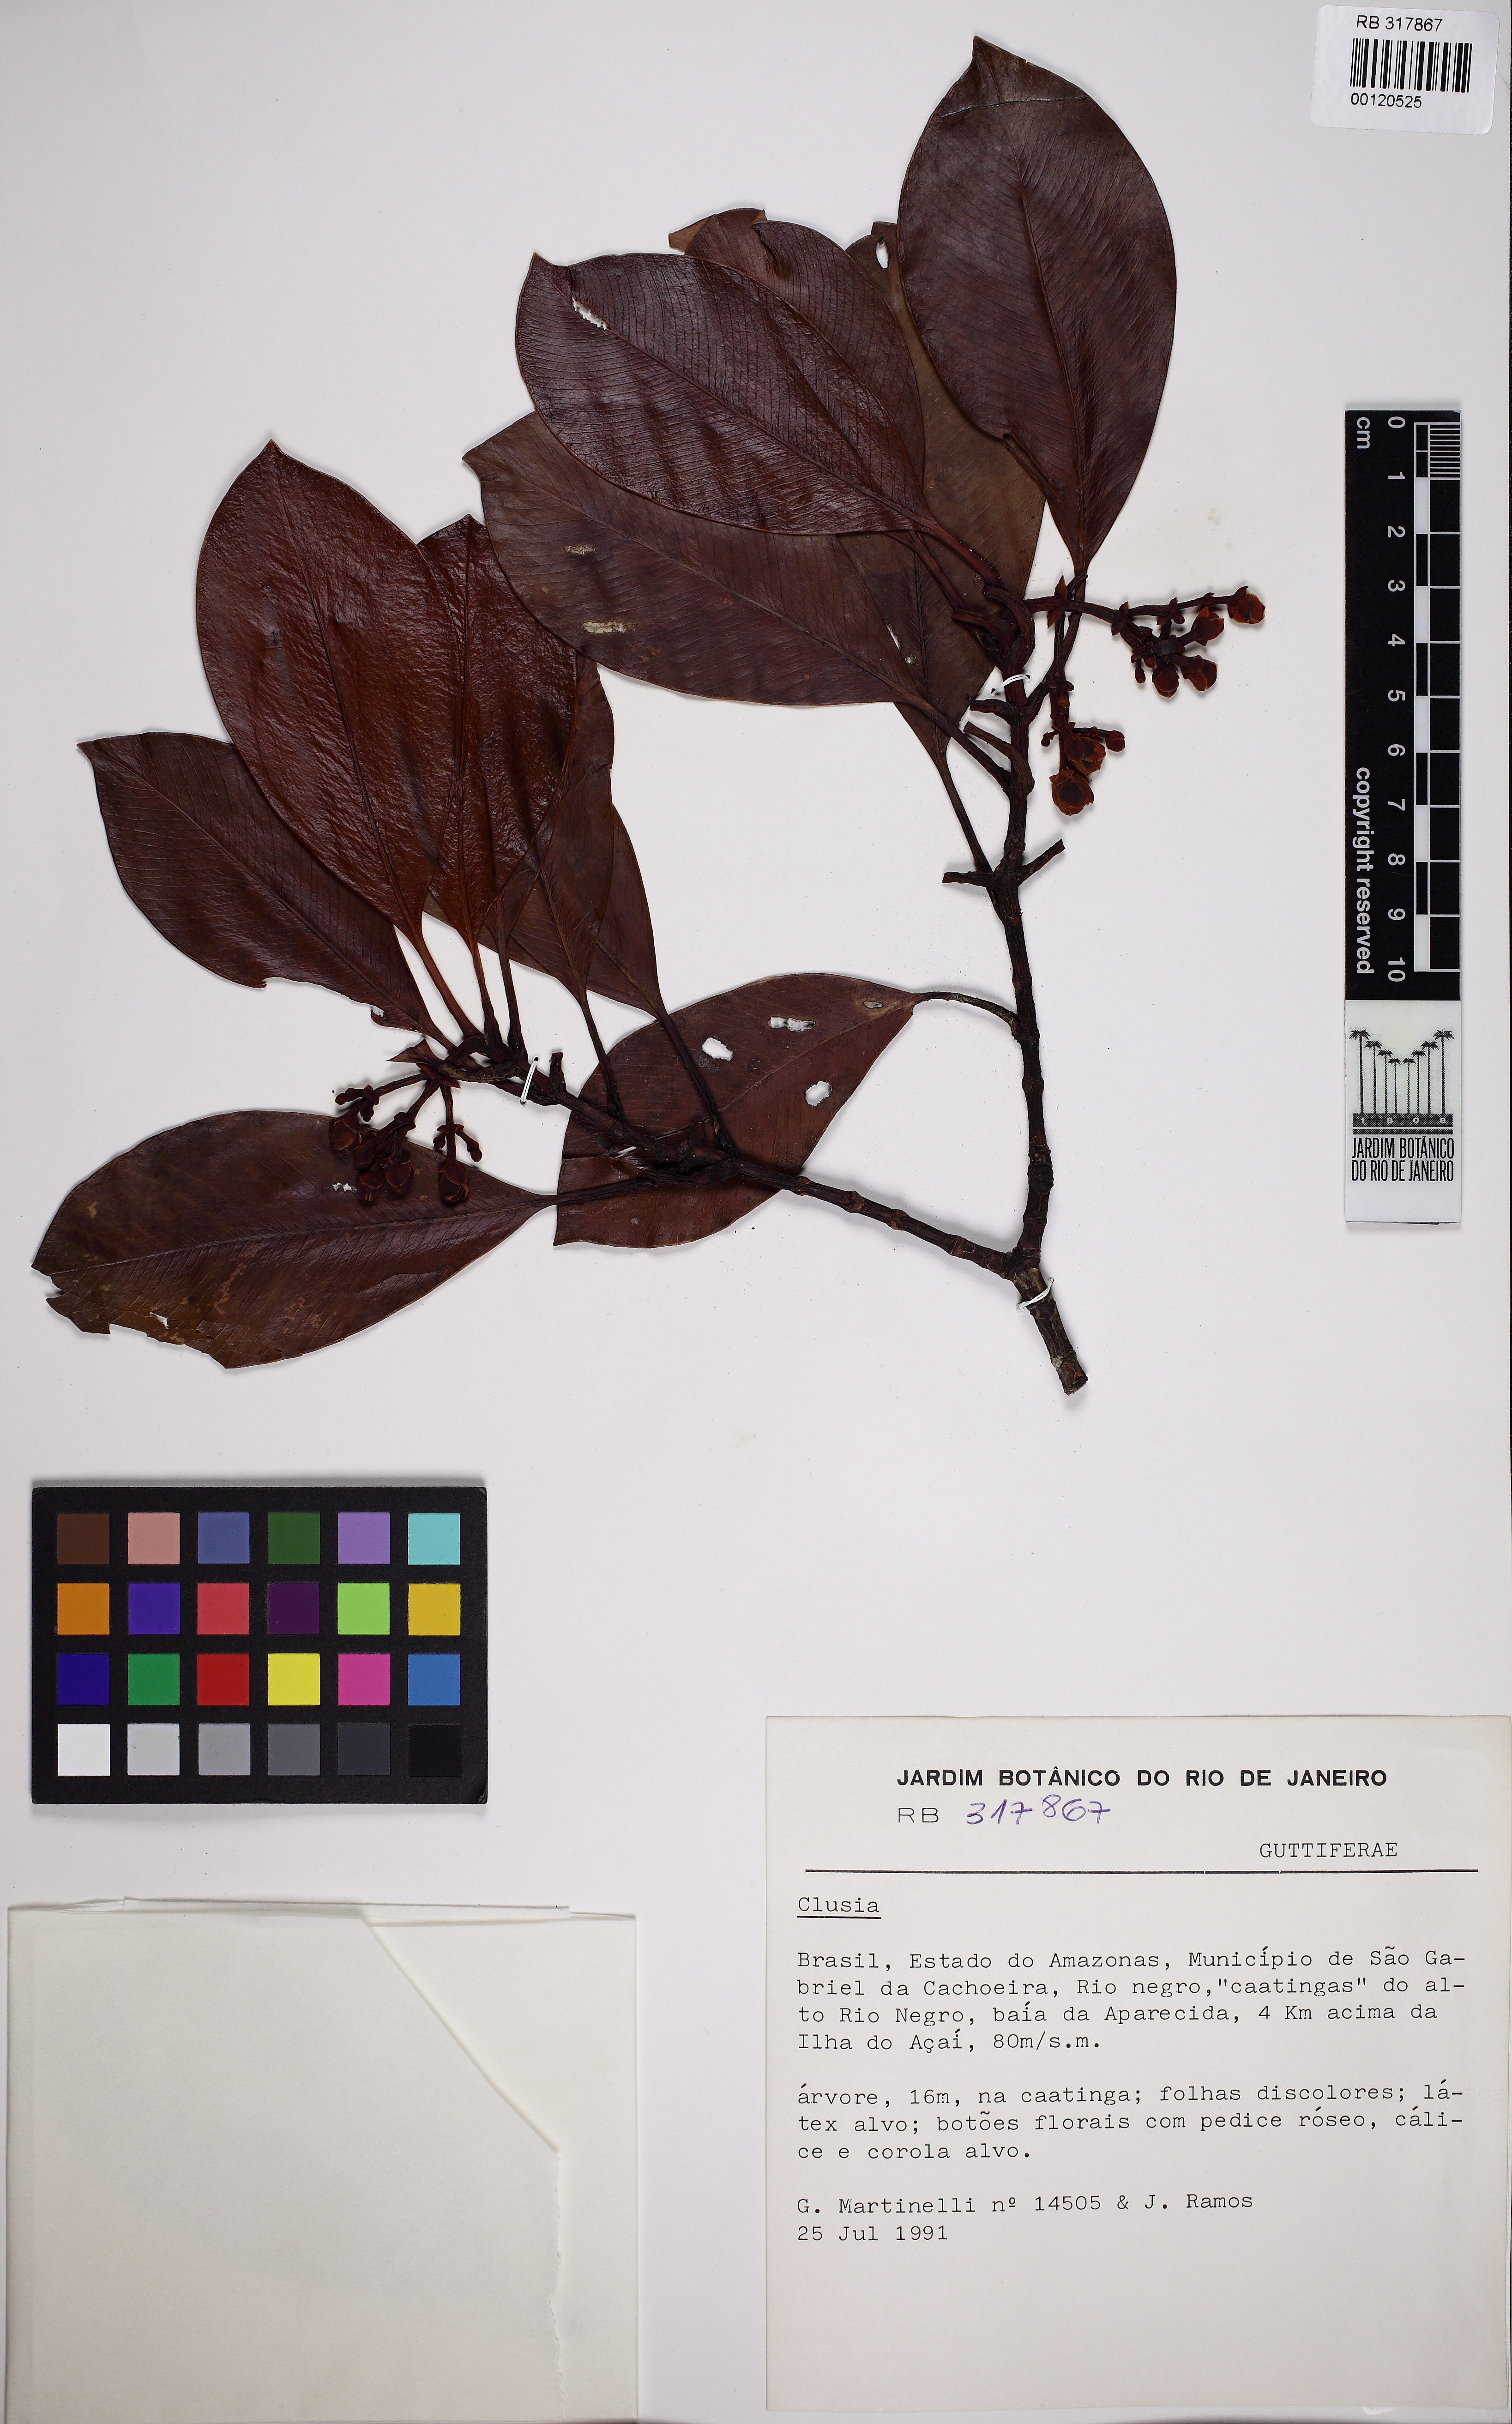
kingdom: Plantae
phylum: Tracheophyta
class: Magnoliopsida
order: Malpighiales
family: Clusiaceae
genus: Clusia
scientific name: Clusia
